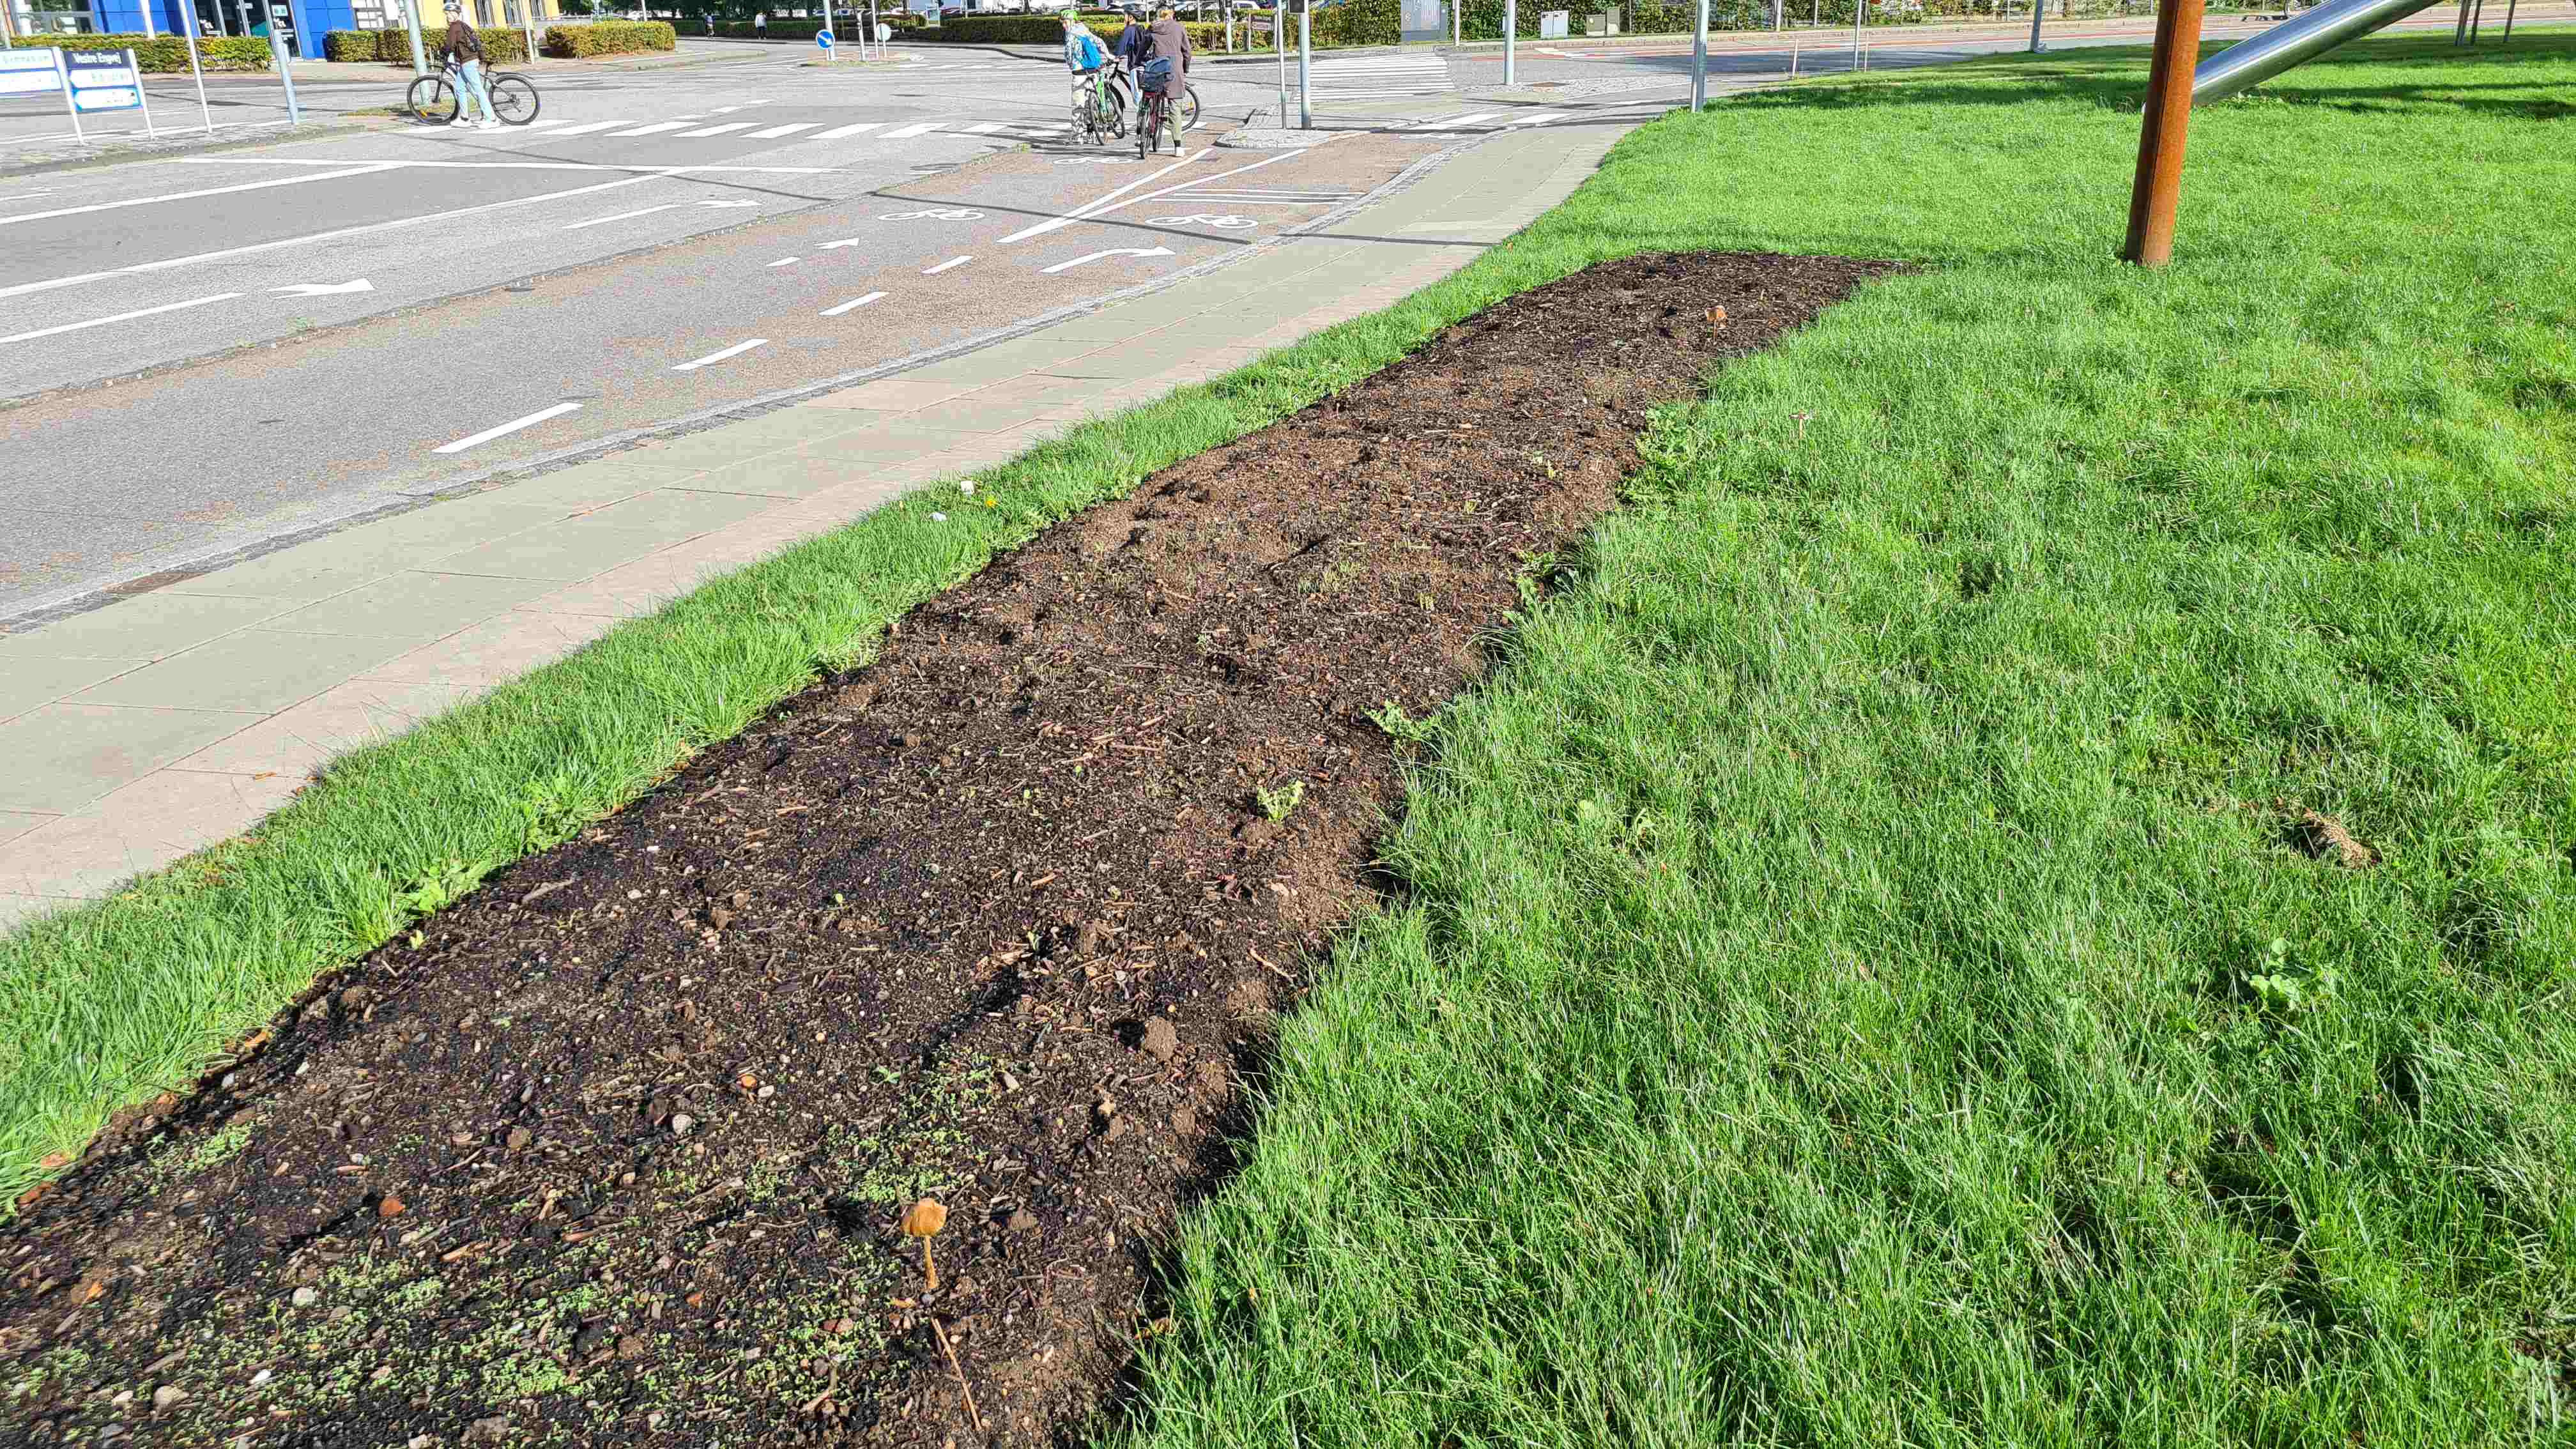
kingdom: Fungi
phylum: Basidiomycota
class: Agaricomycetes
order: Agaricales
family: Physalacriaceae
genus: Hymenopellis
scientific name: Hymenopellis radicata
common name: almindelig pælerodshat
